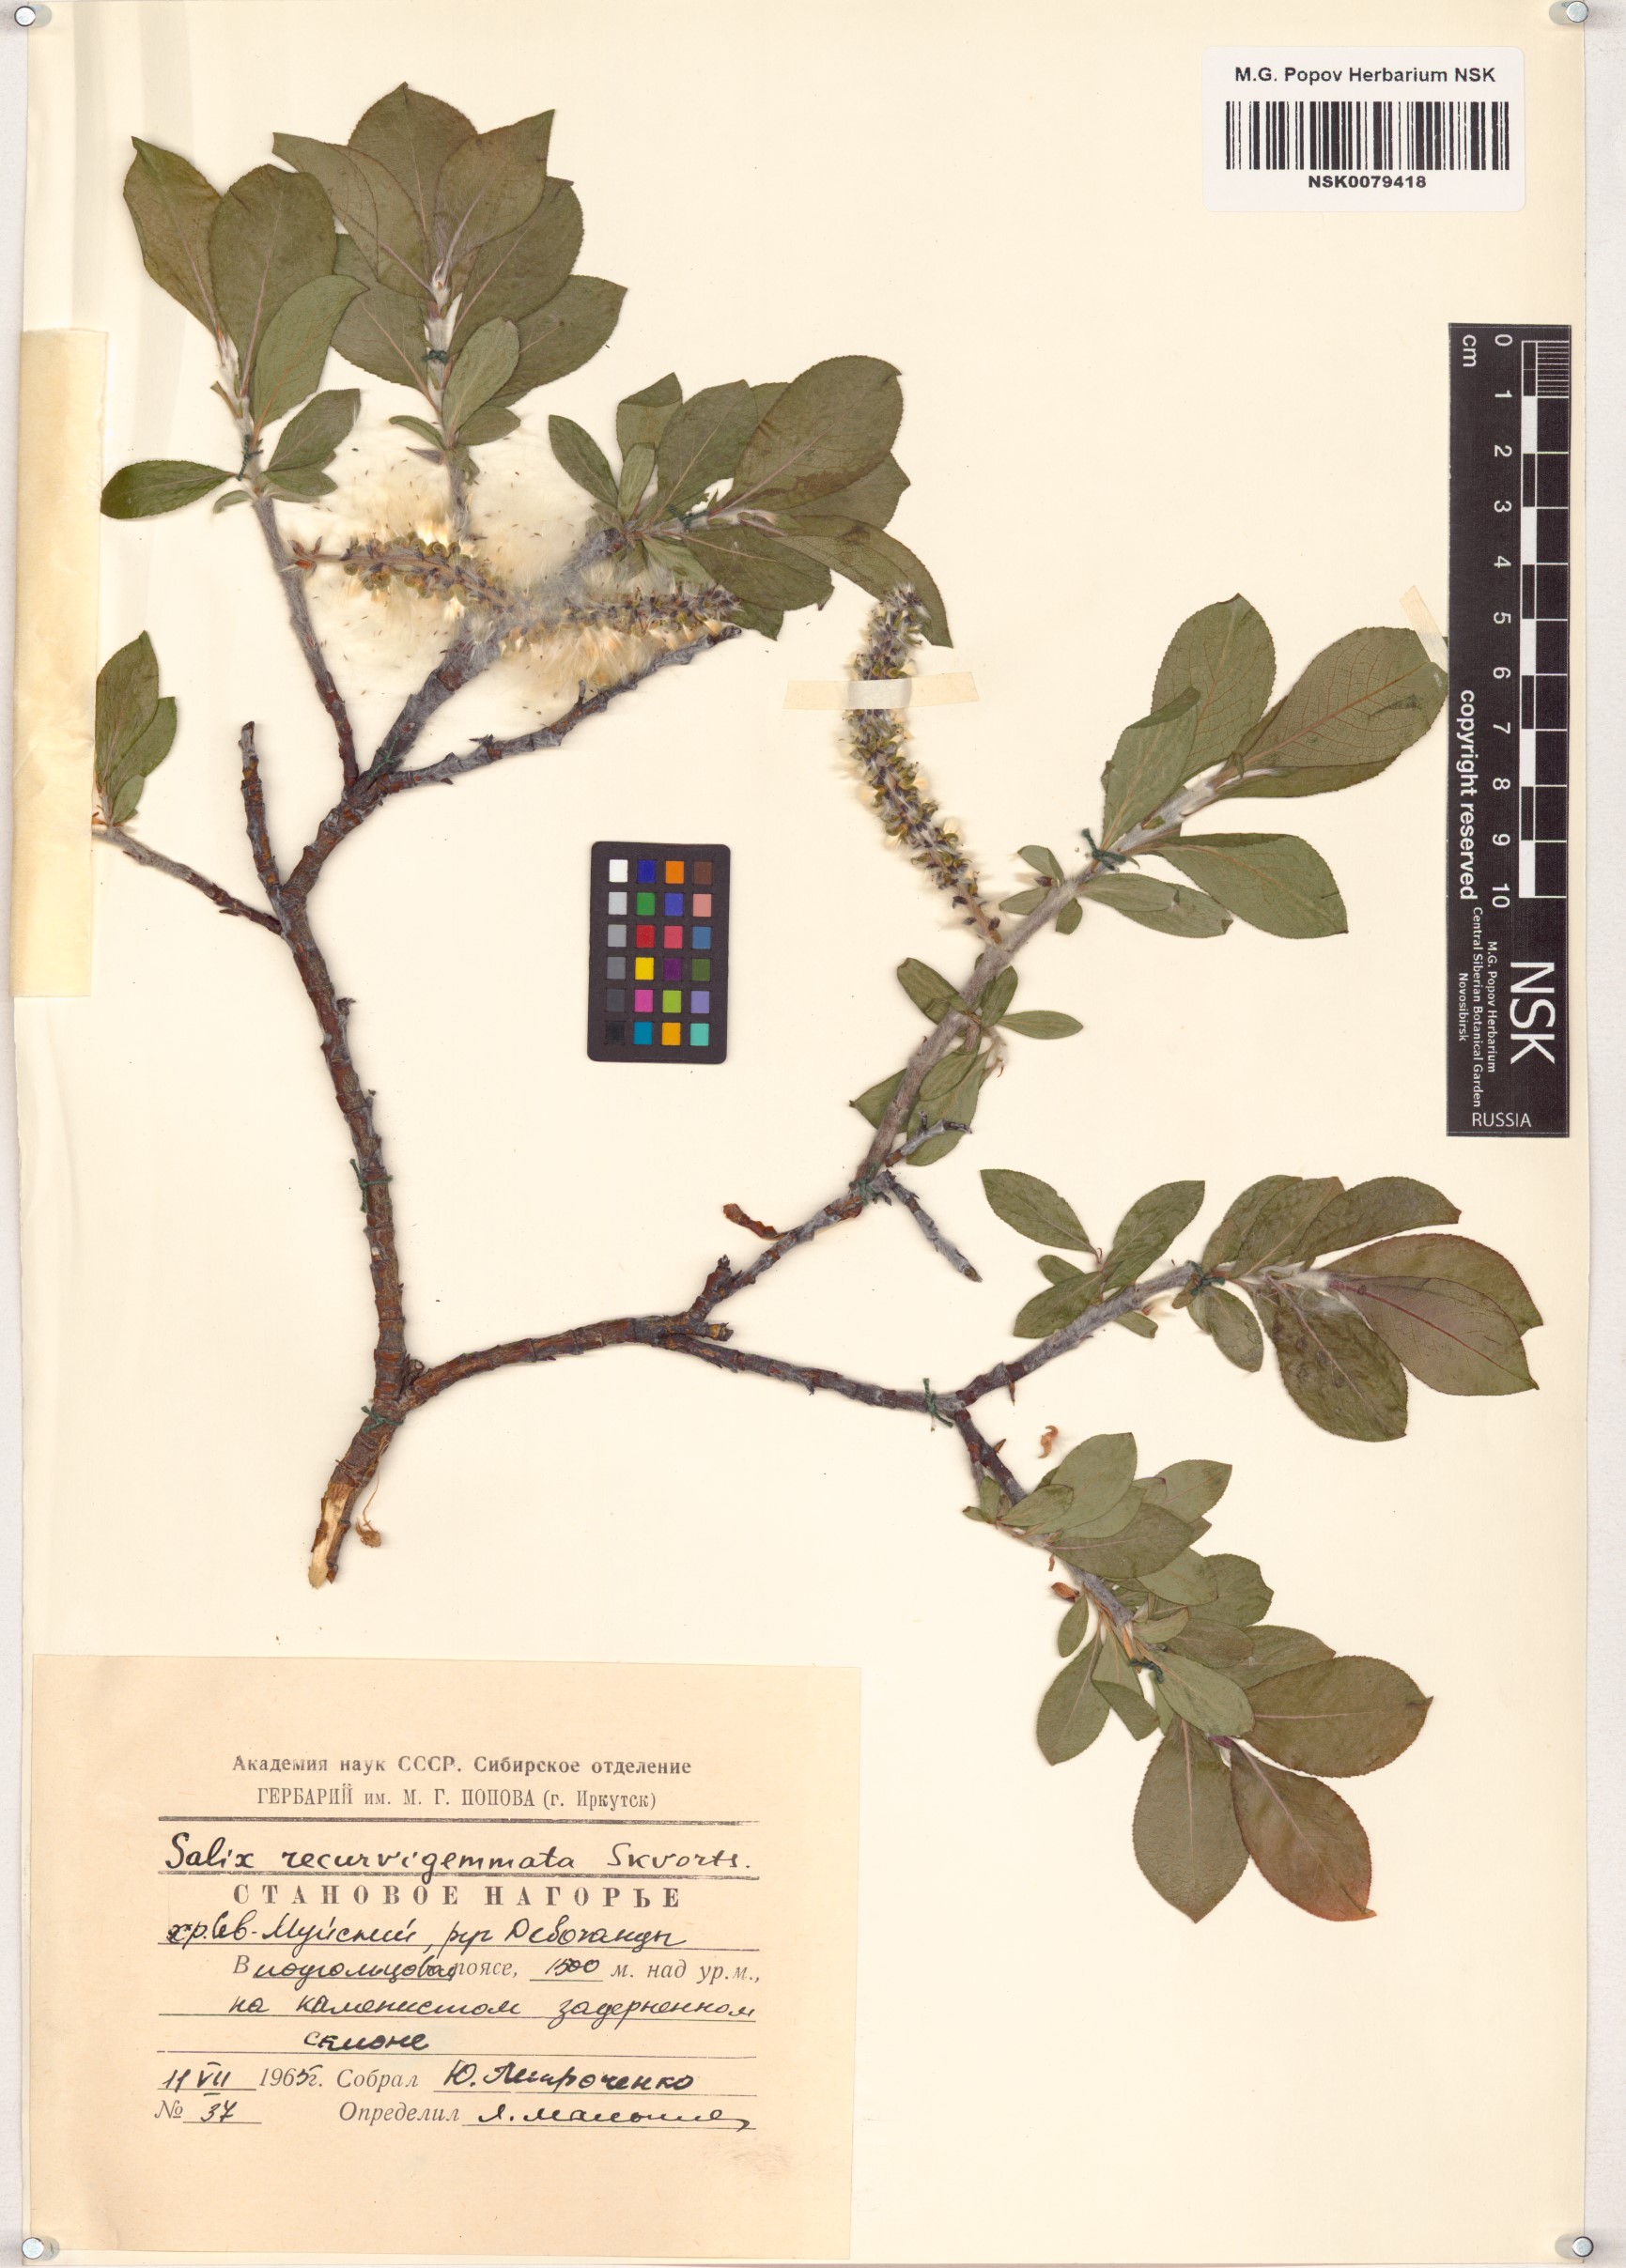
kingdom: Plantae
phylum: Tracheophyta
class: Magnoliopsida
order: Malpighiales
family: Salicaceae
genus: Salix
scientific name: Salix recurvigemmata
